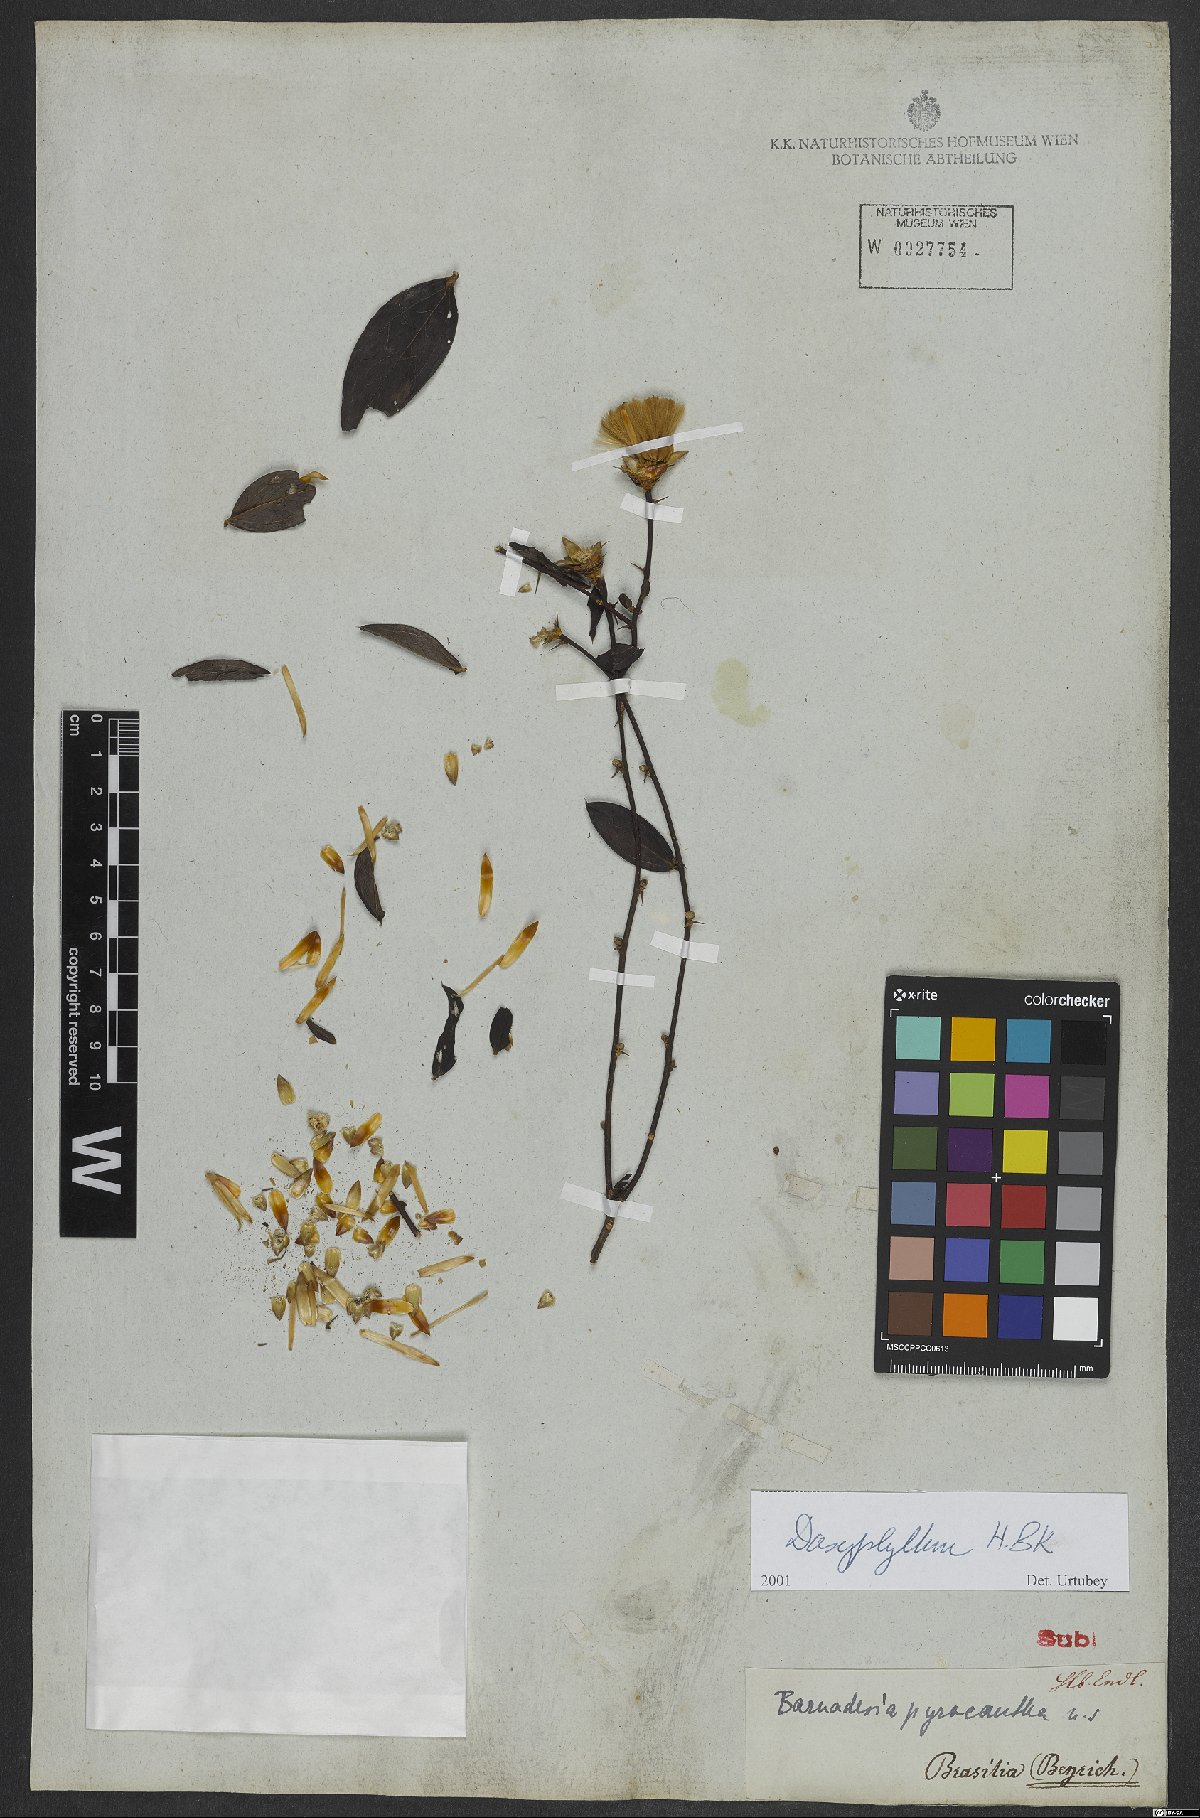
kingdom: Plantae
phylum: Tracheophyta
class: Magnoliopsida
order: Asterales
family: Asteraceae
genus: Dasyphyllum
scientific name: Dasyphyllum
